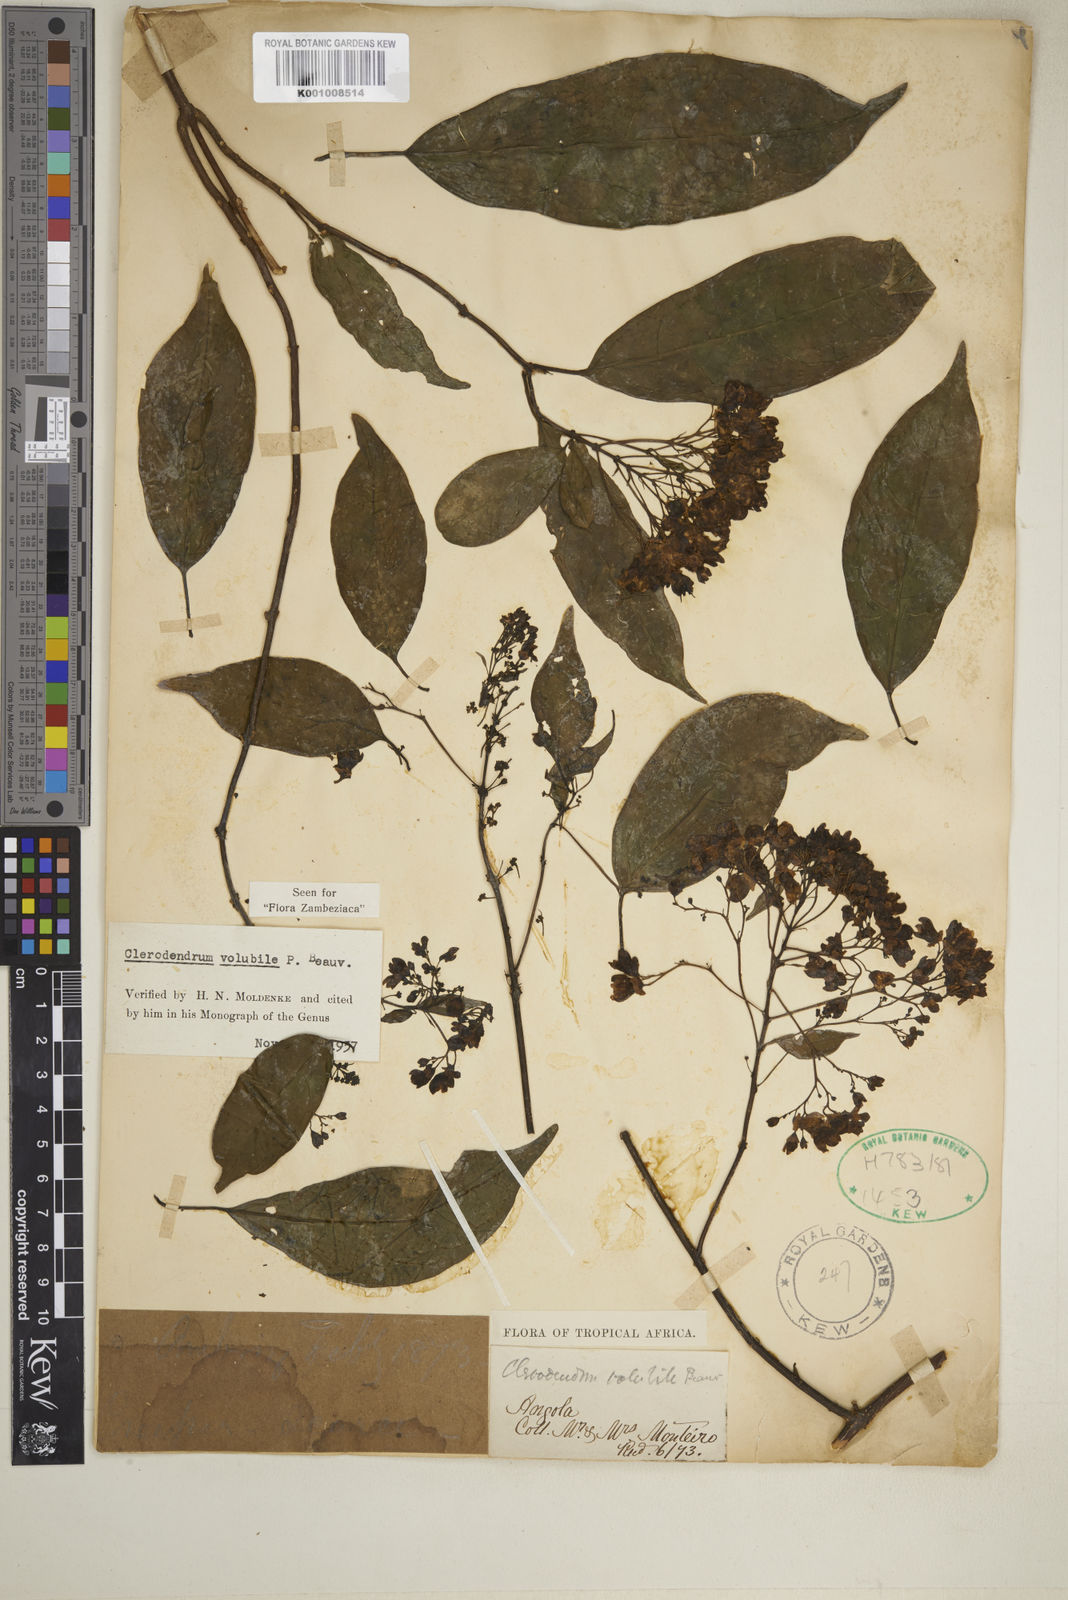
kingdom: Plantae
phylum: Tracheophyta
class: Magnoliopsida
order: Lamiales
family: Lamiaceae
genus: Clerodendrum
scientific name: Clerodendrum volubile
